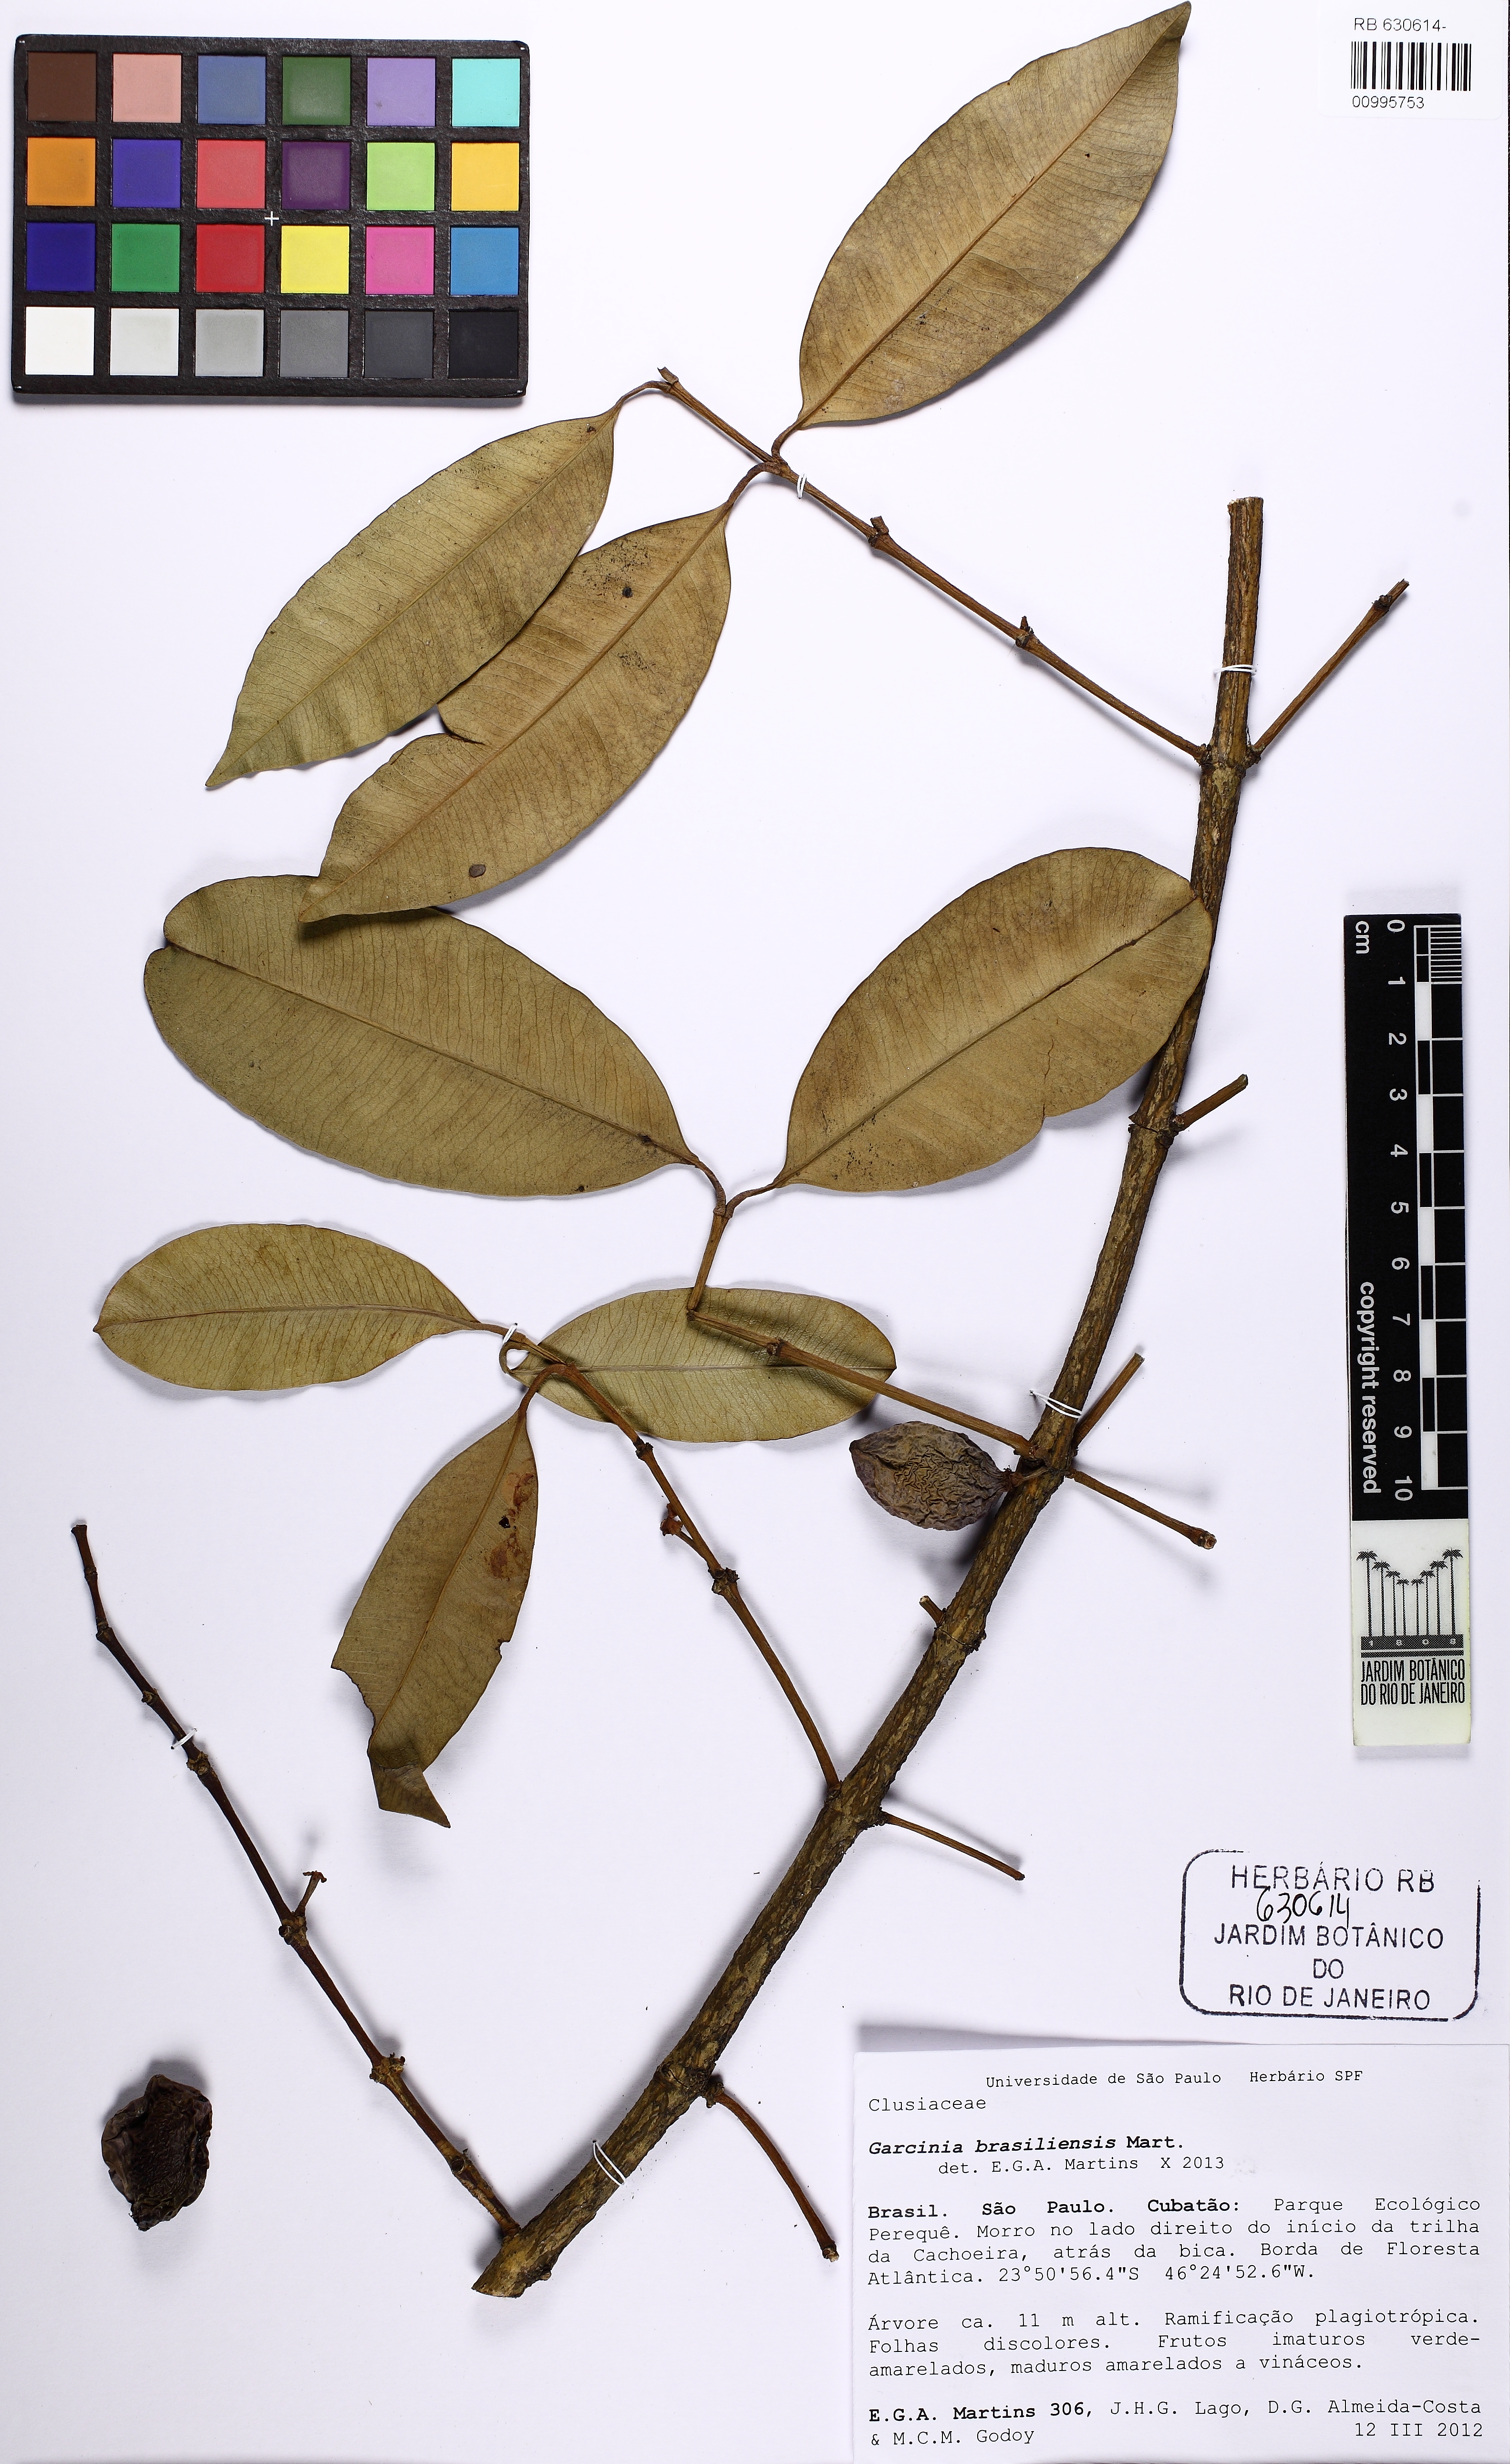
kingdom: Plantae
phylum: Tracheophyta
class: Magnoliopsida
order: Malpighiales
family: Clusiaceae
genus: Garcinia
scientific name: Garcinia gardneriana
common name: Achacha
